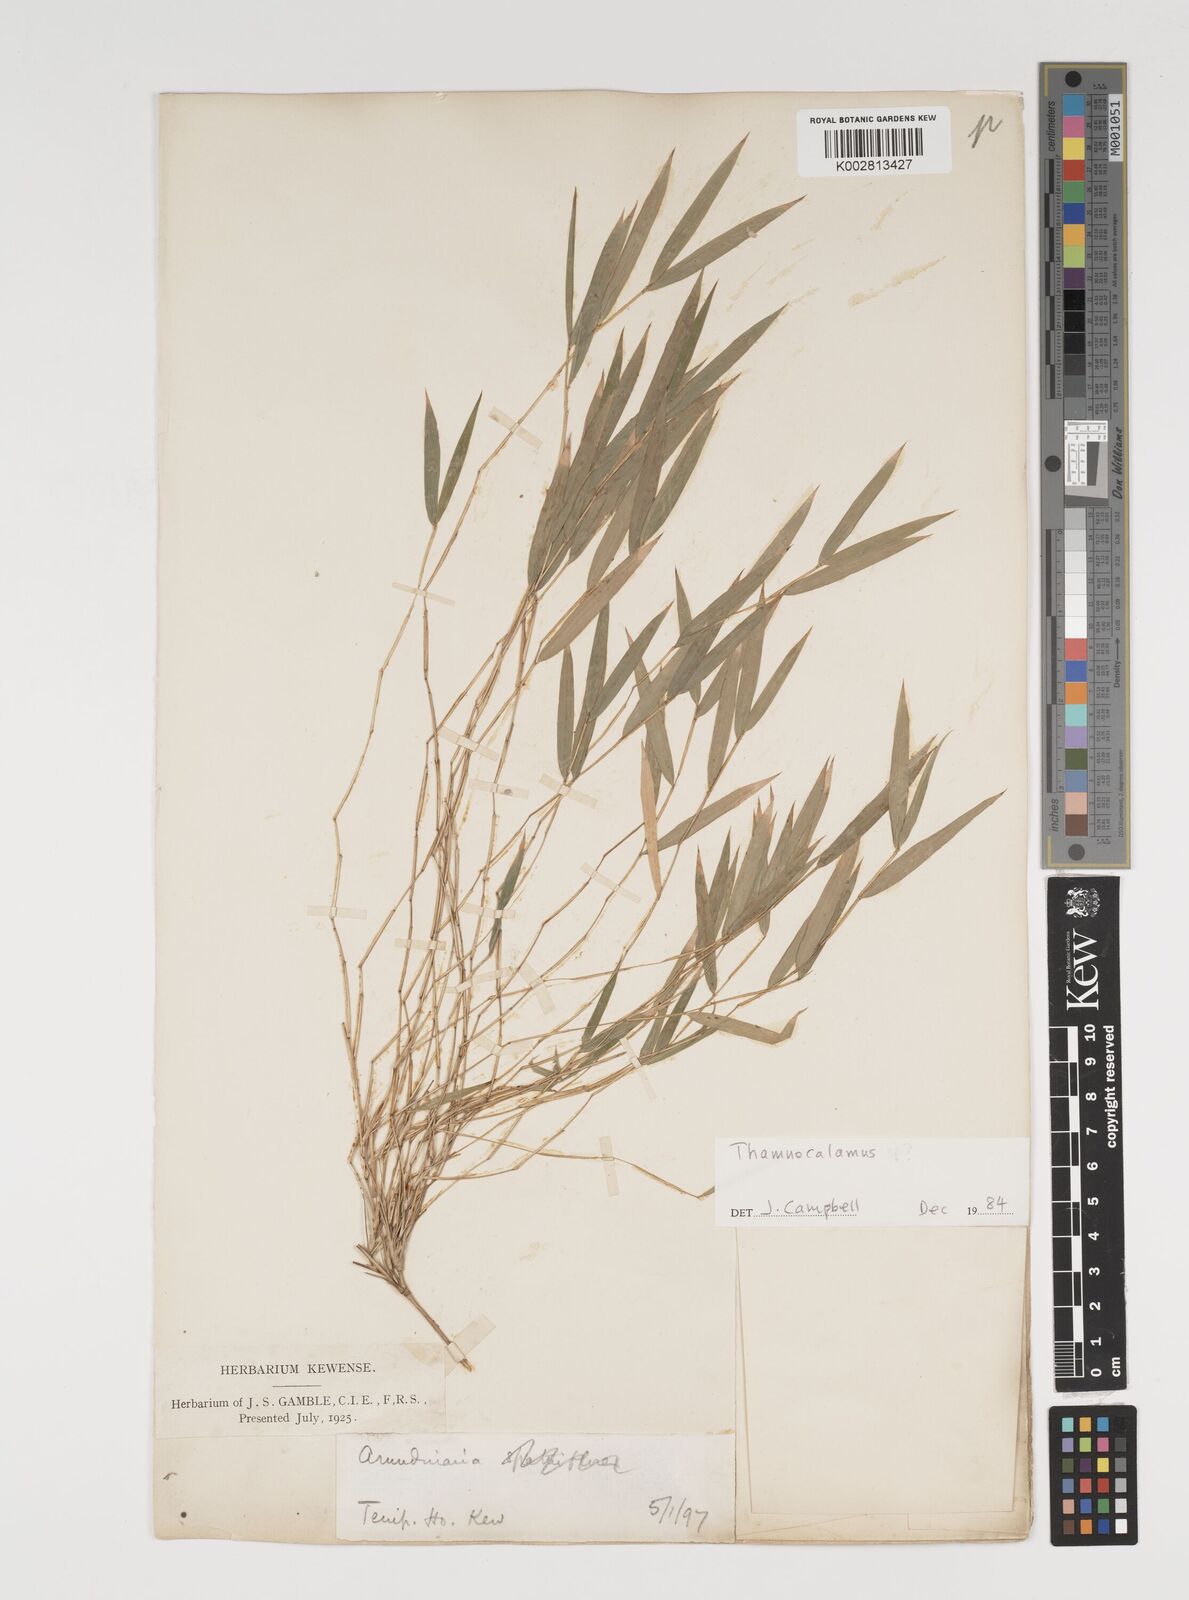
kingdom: Plantae
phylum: Tracheophyta
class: Liliopsida
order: Poales
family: Poaceae
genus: Thamnocalamus
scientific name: Thamnocalamus spathiflorus
